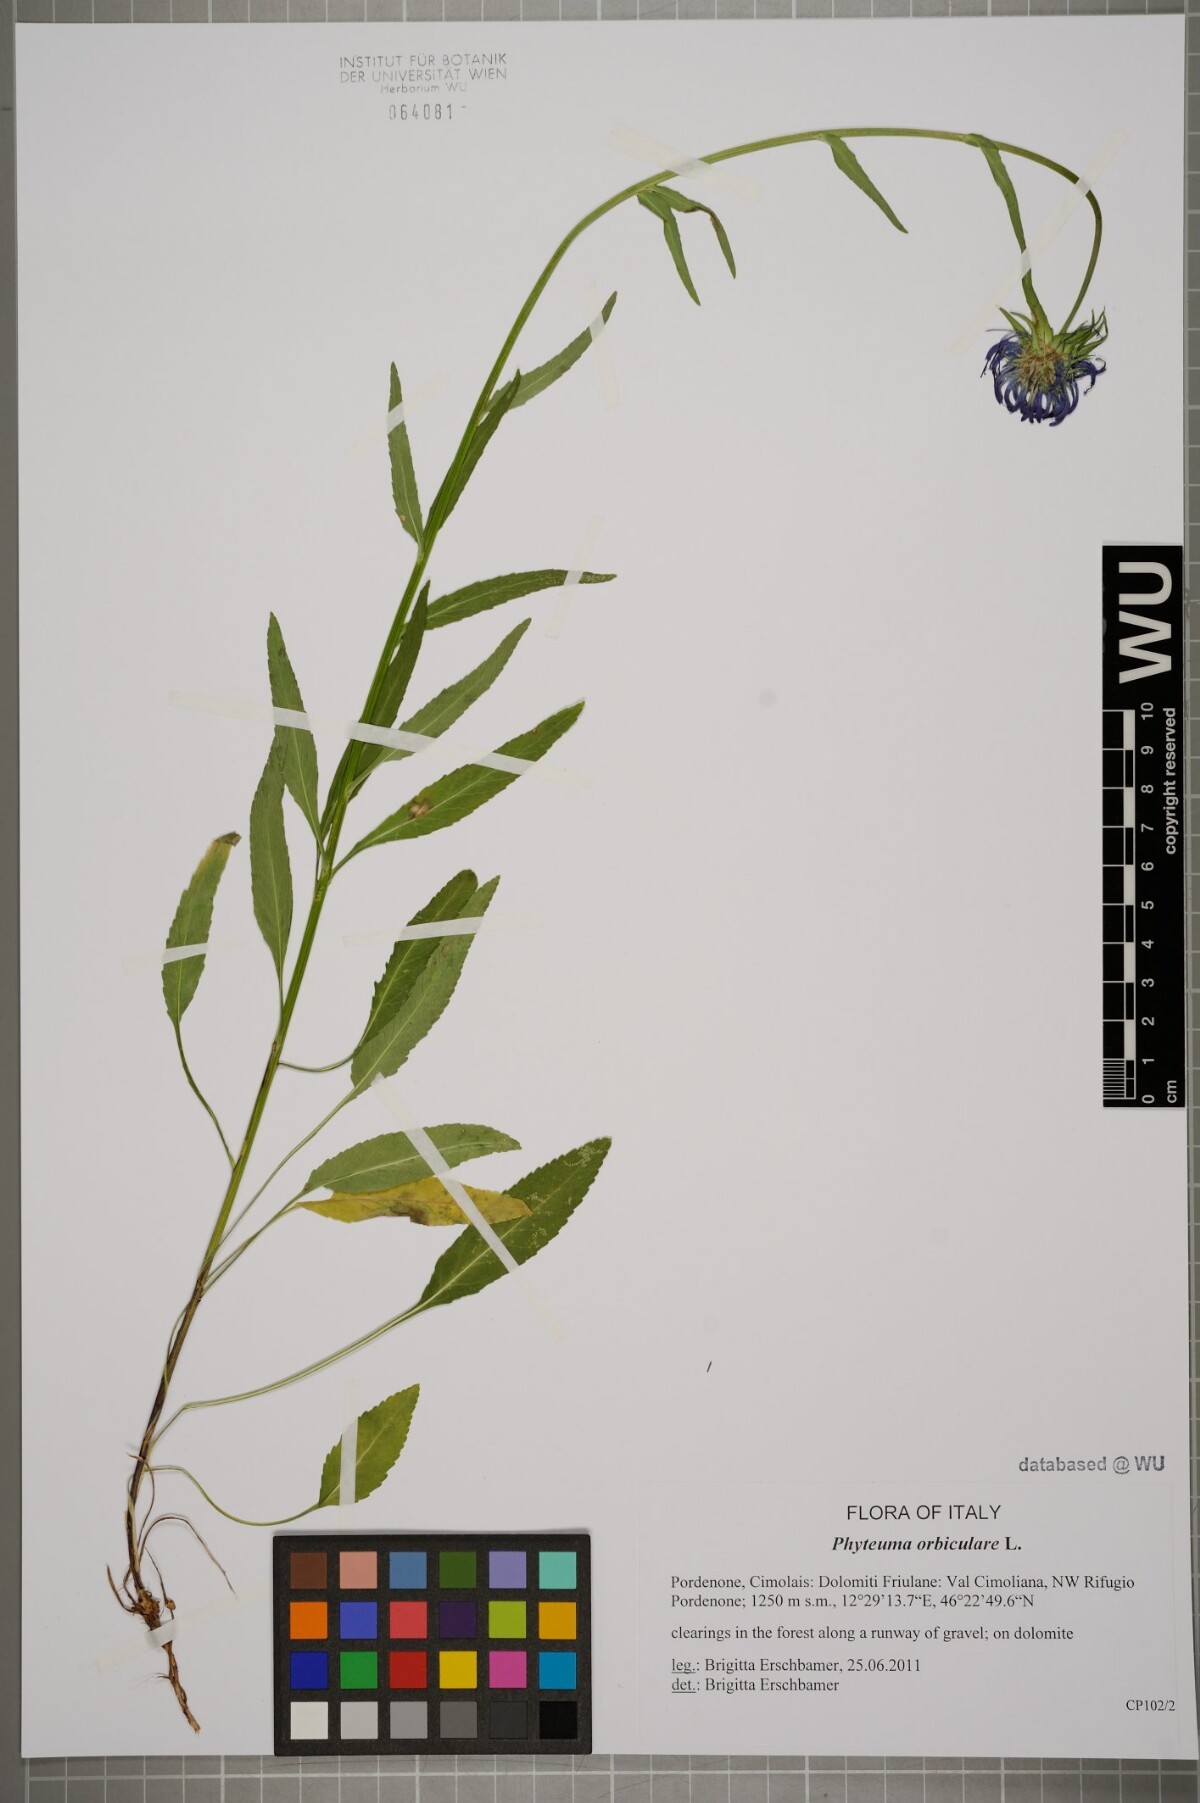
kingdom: Plantae
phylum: Tracheophyta
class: Magnoliopsida
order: Asterales
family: Campanulaceae
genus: Phyteuma
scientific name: Phyteuma orbiculare
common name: Round-headed rampion
